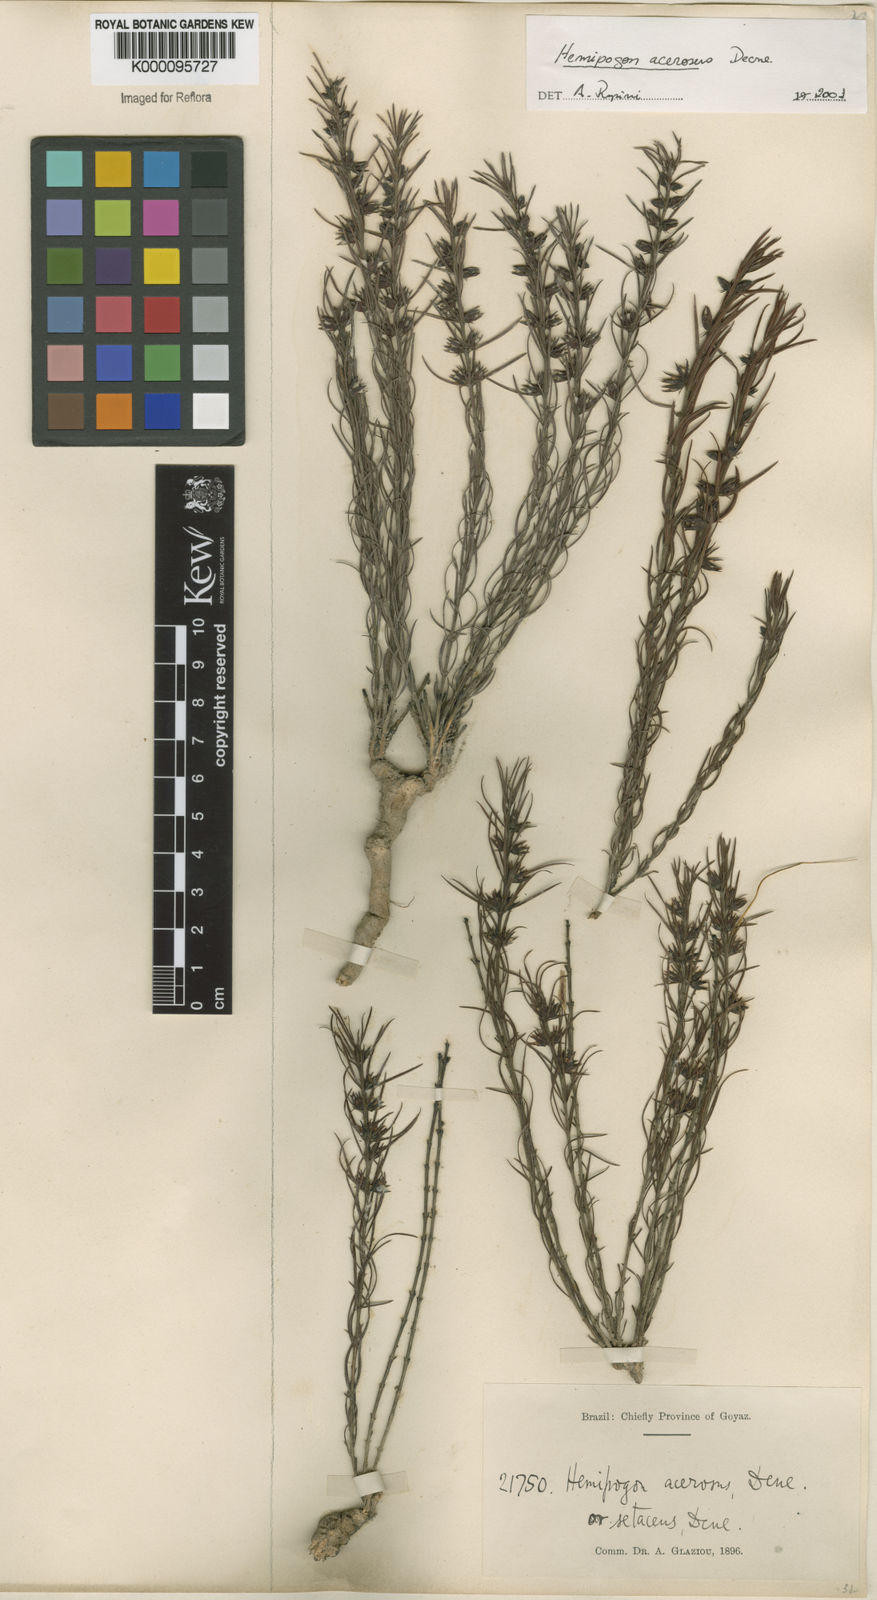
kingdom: Plantae
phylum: Tracheophyta
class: Magnoliopsida
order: Gentianales
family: Apocynaceae
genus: Hemipogon
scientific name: Hemipogon acerosus
